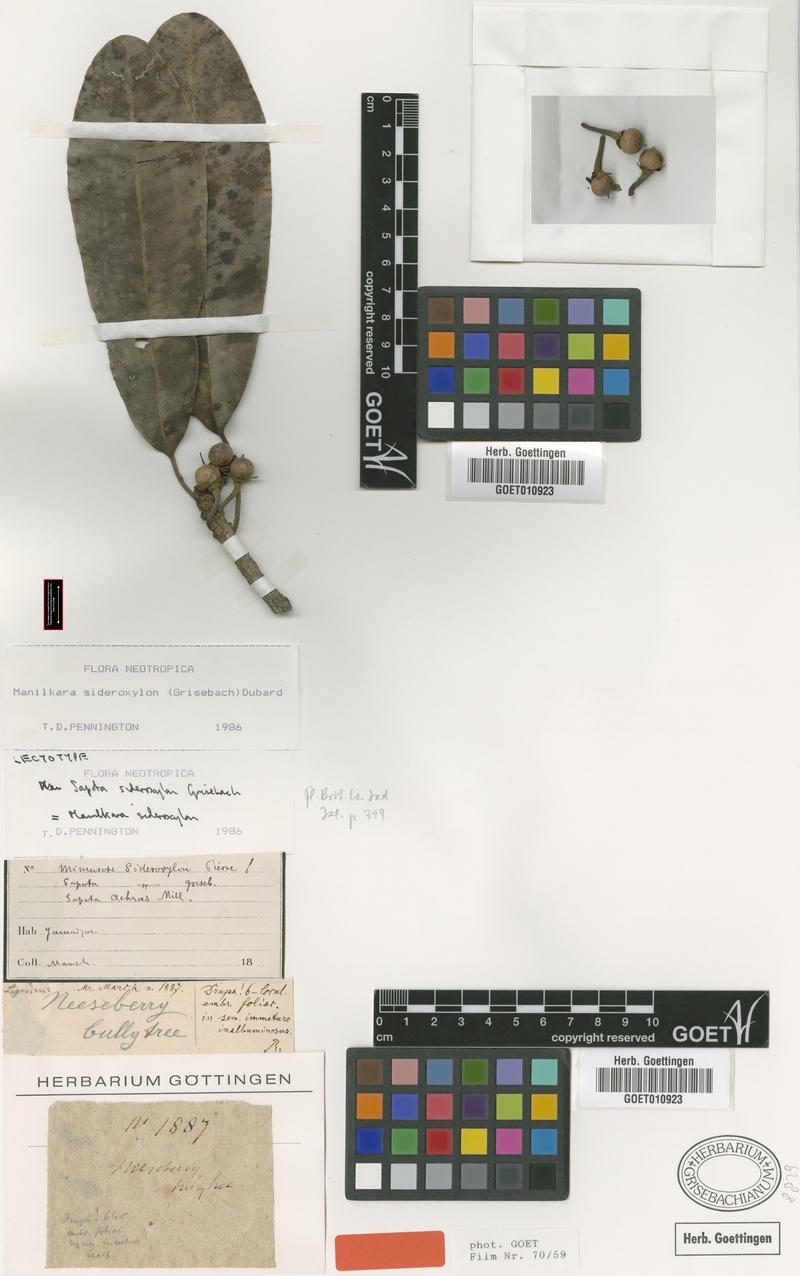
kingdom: Plantae
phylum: Tracheophyta
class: Magnoliopsida
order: Ericales
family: Sapotaceae
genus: Manilkara
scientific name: Manilkara sideroxylon
